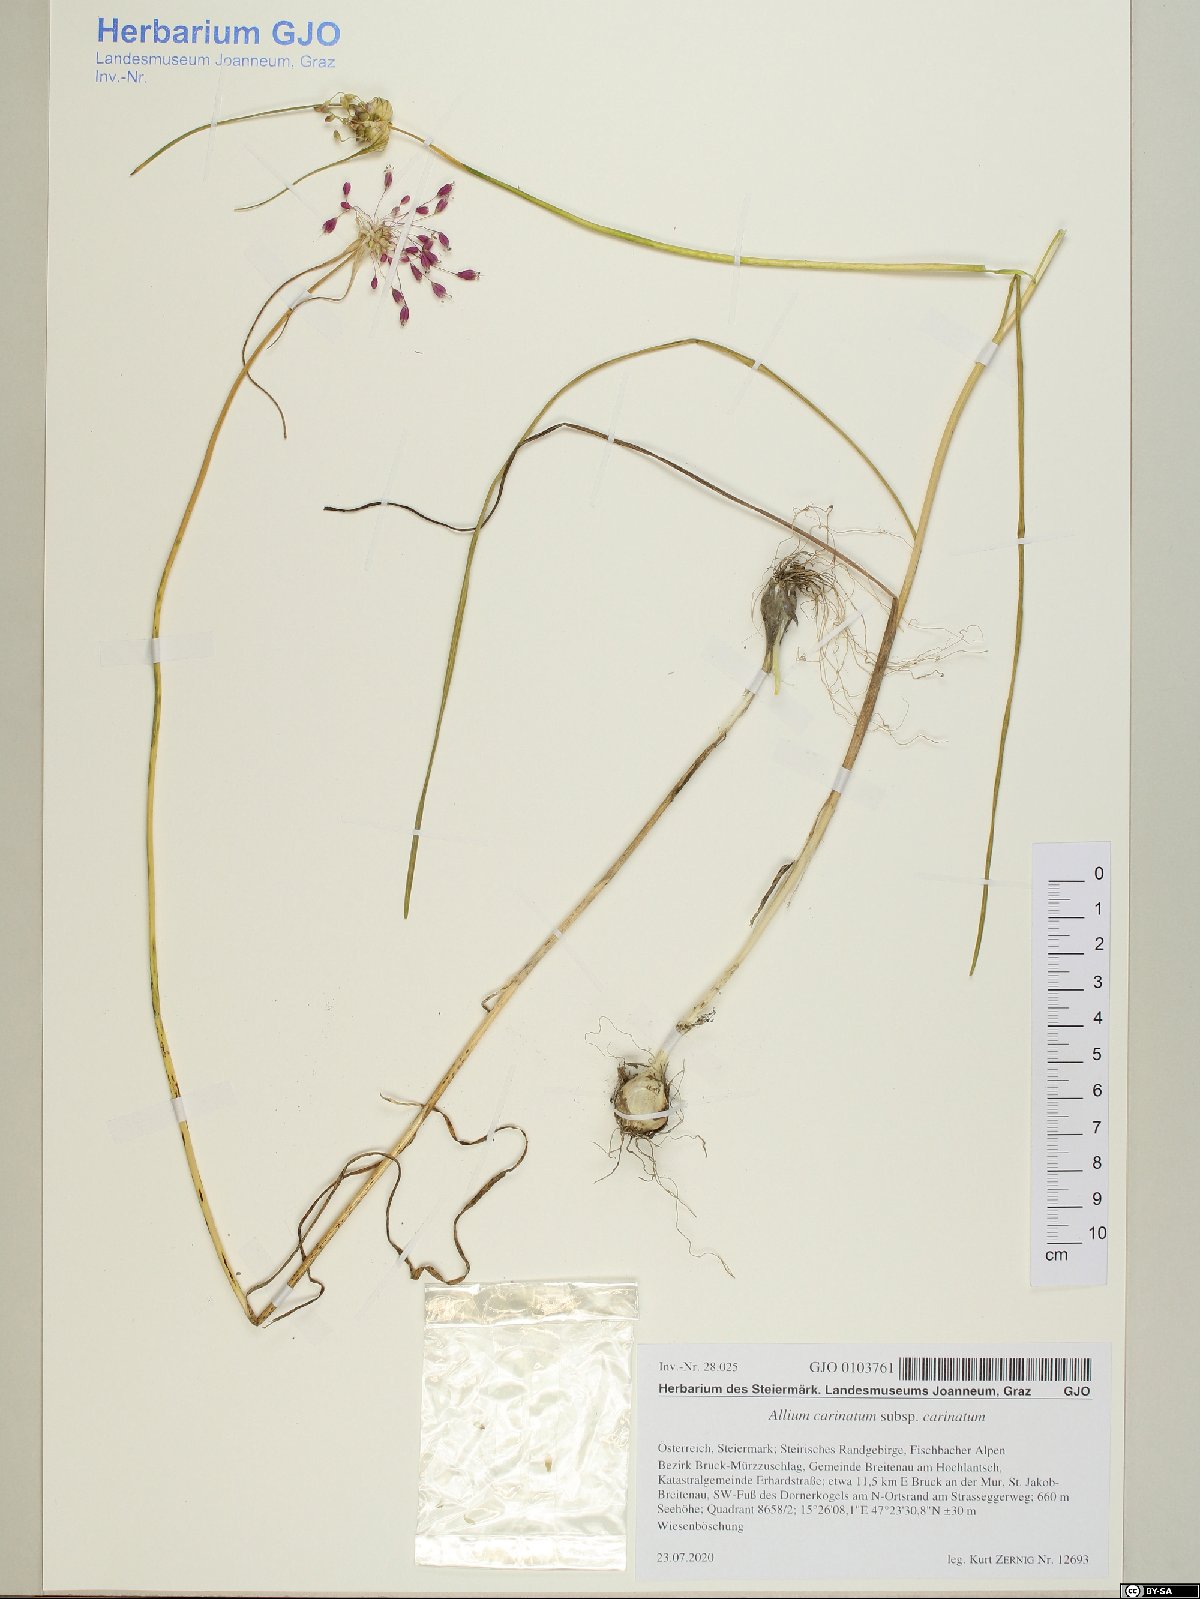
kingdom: Plantae
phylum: Tracheophyta
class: Liliopsida
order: Asparagales
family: Amaryllidaceae
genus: Allium
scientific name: Allium carinatum
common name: Keeled garlic
